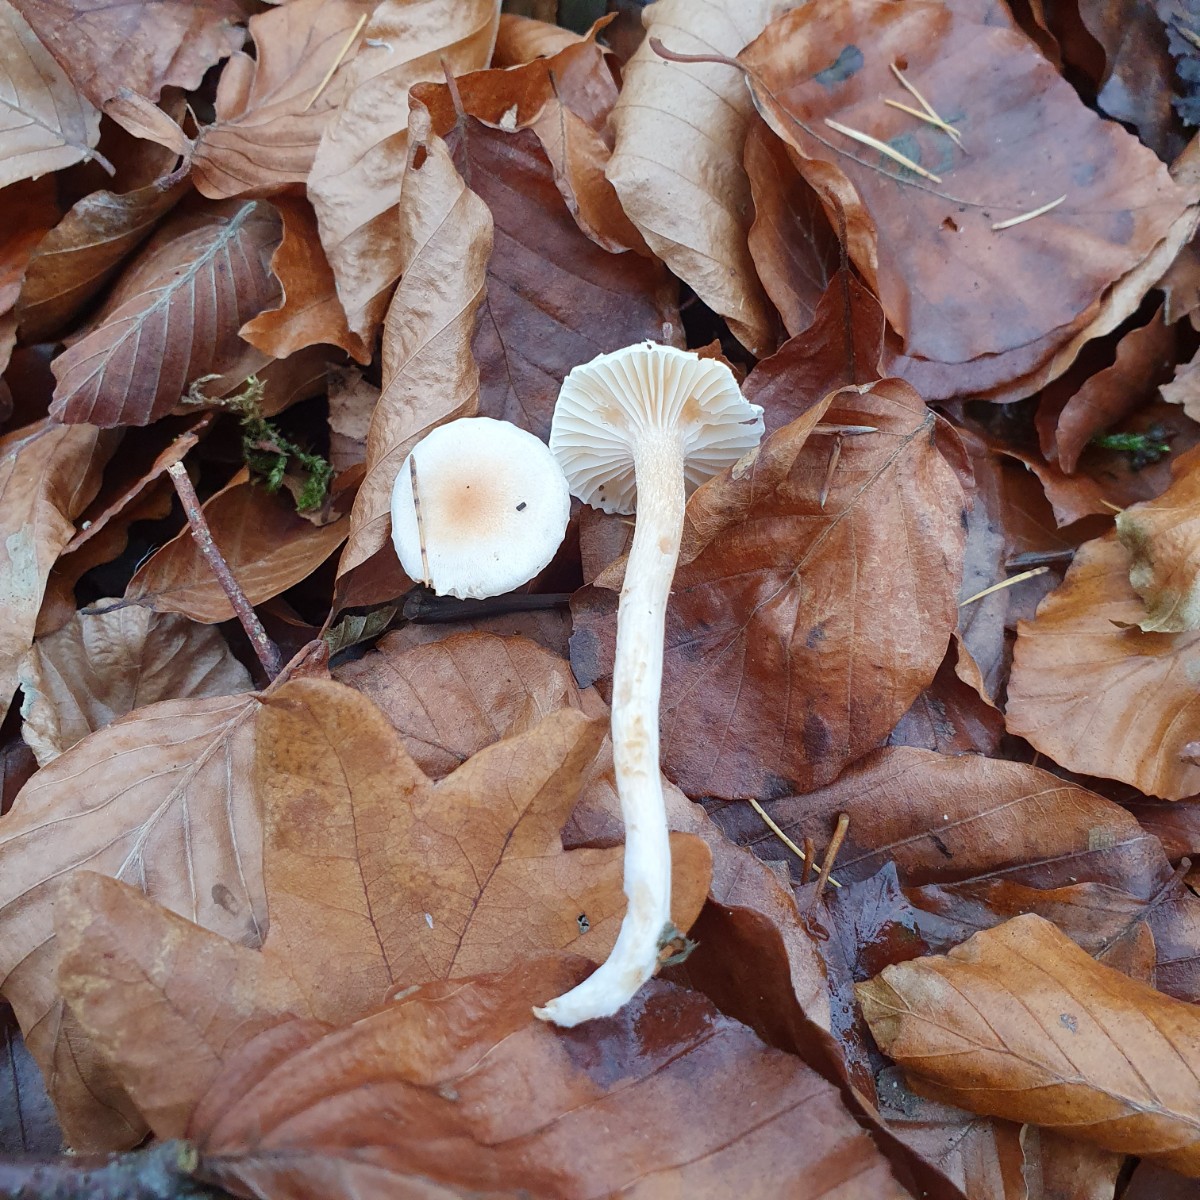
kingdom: Fungi
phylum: Basidiomycota
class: Agaricomycetes
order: Agaricales
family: Hygrophoraceae
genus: Hygrophorus
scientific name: Hygrophorus unicolor
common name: orangeøjet sneglehat
